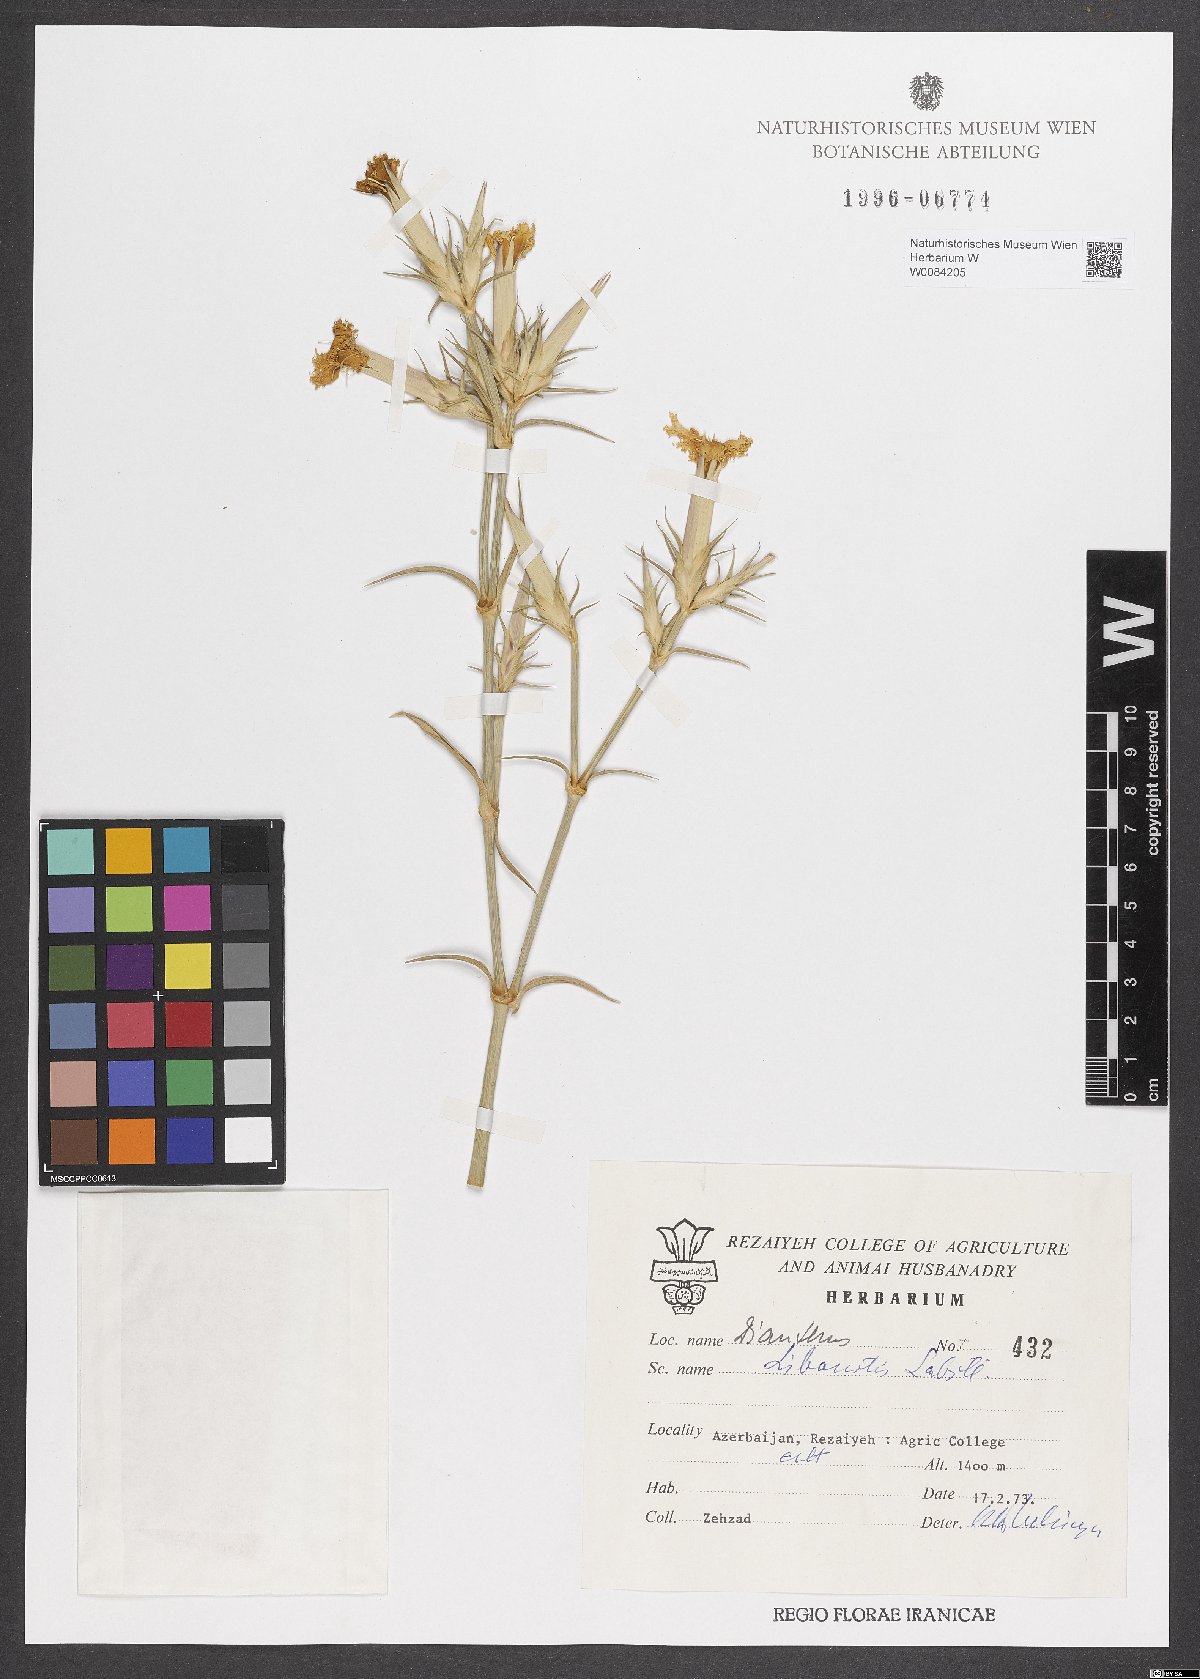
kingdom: Plantae
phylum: Tracheophyta
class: Magnoliopsida
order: Caryophyllales
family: Caryophyllaceae
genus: Dianthus
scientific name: Dianthus libanotis
